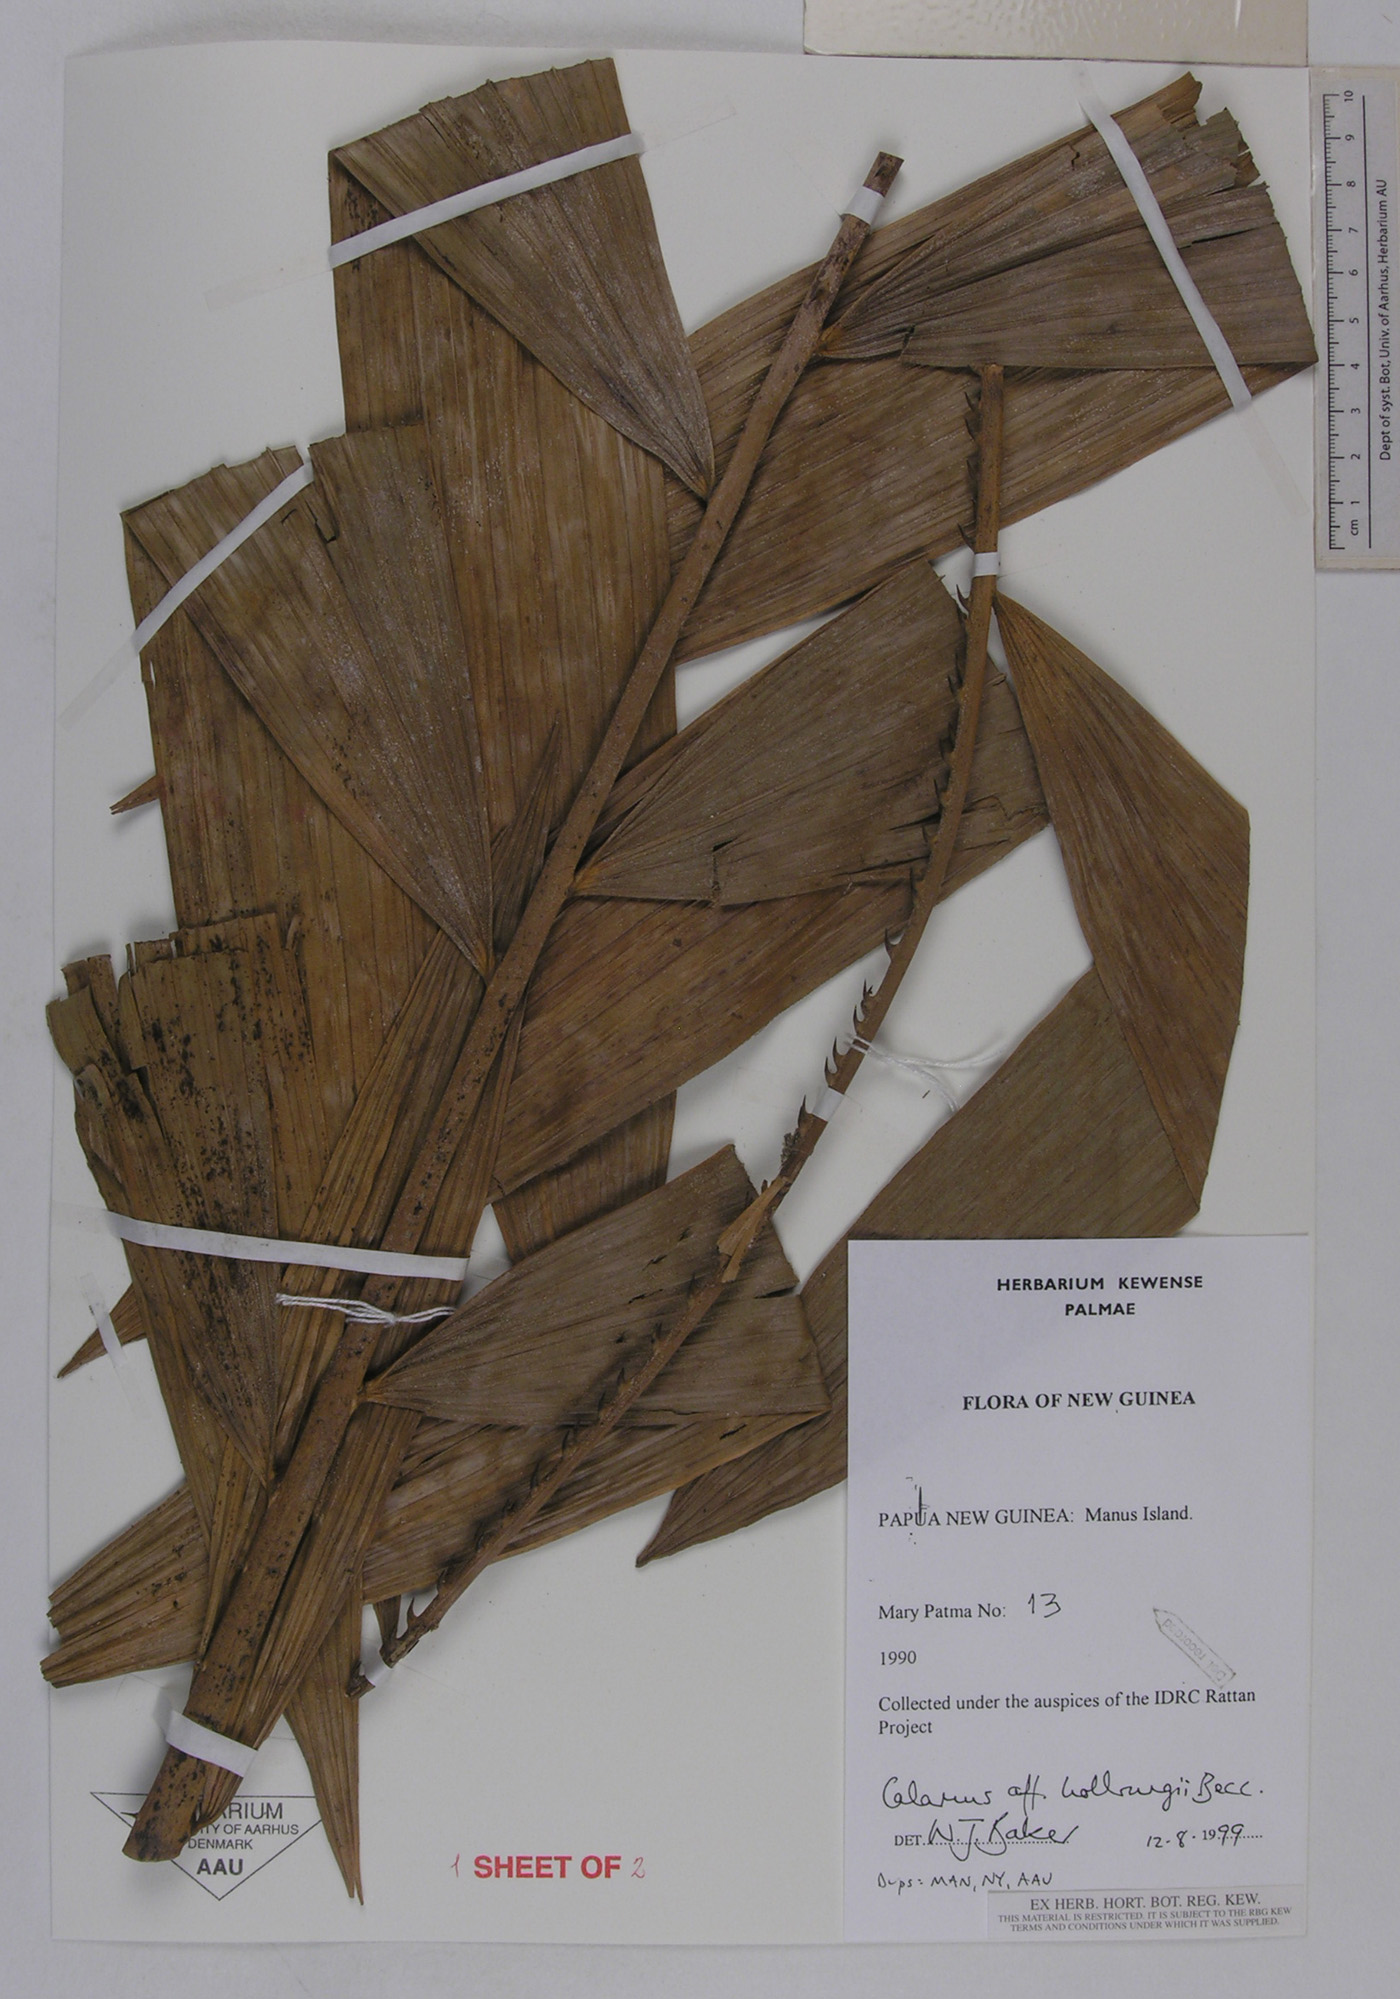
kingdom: Plantae
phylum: Tracheophyta
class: Liliopsida
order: Arecales
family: Arecaceae
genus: Calamus
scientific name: Calamus aruensis
